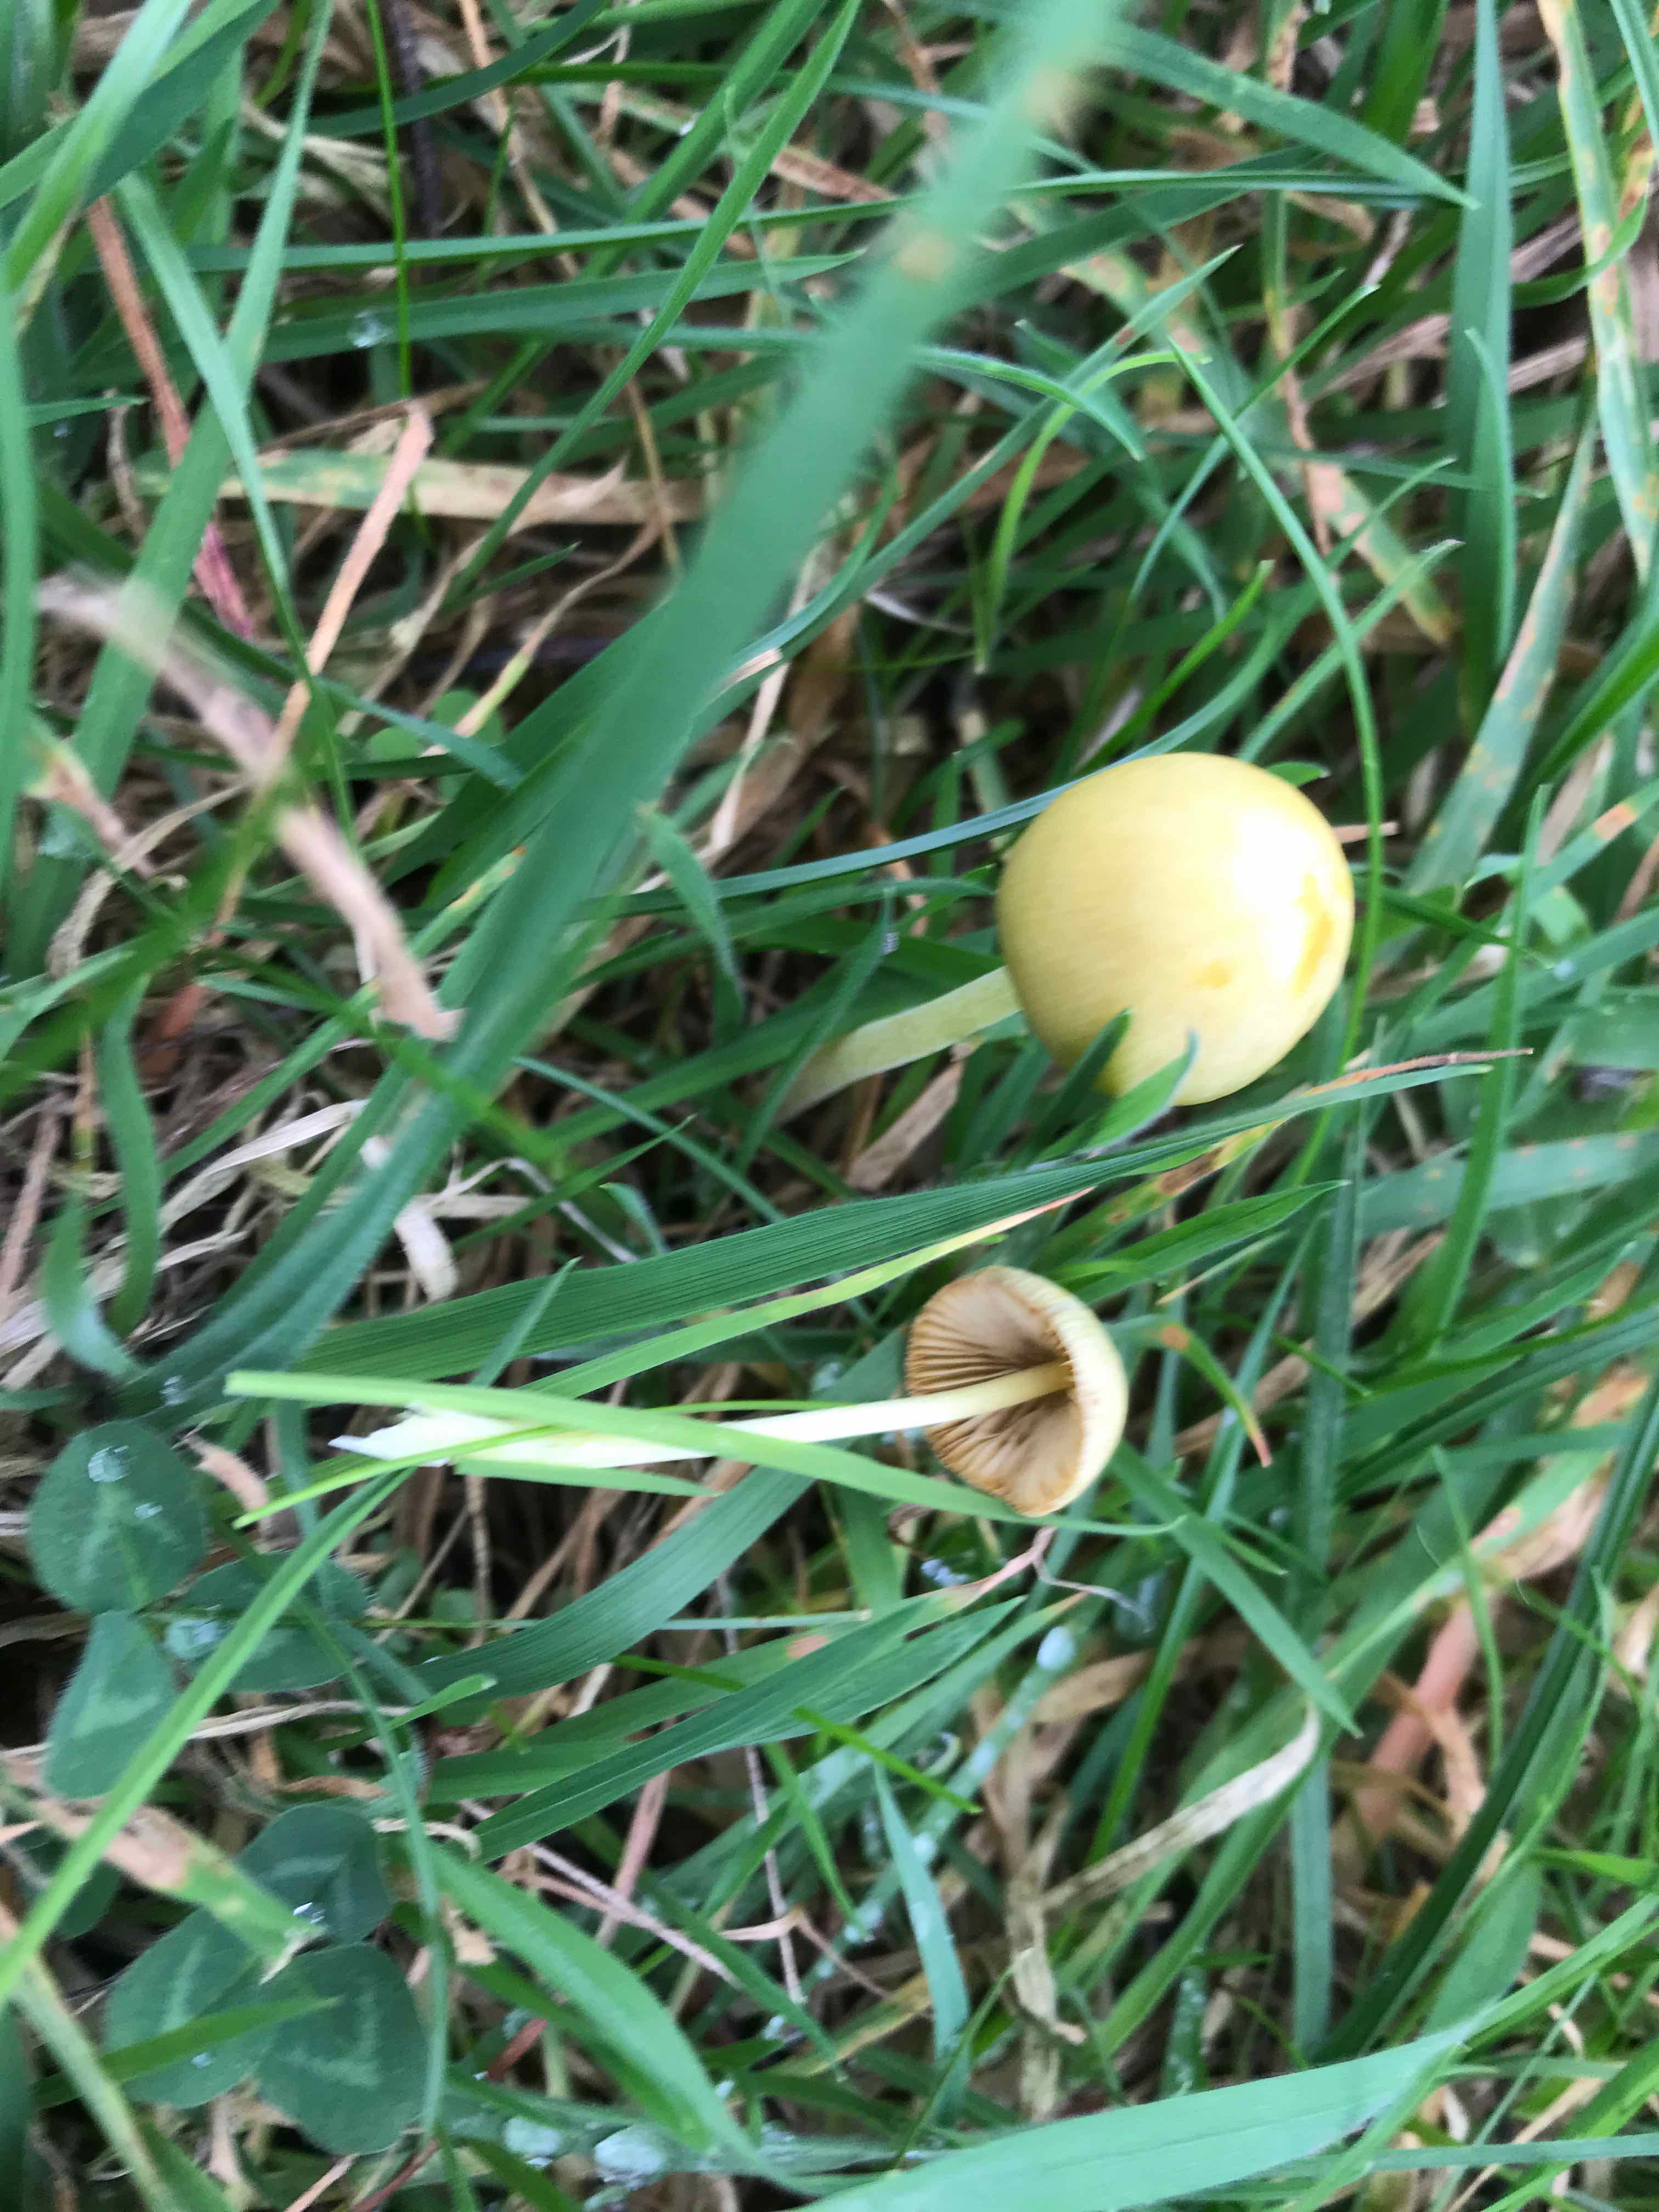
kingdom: Fungi
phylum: Basidiomycota
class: Agaricomycetes
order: Agaricales
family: Bolbitiaceae
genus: Bolbitius
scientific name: Bolbitius titubans
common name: almindelig gulhat
